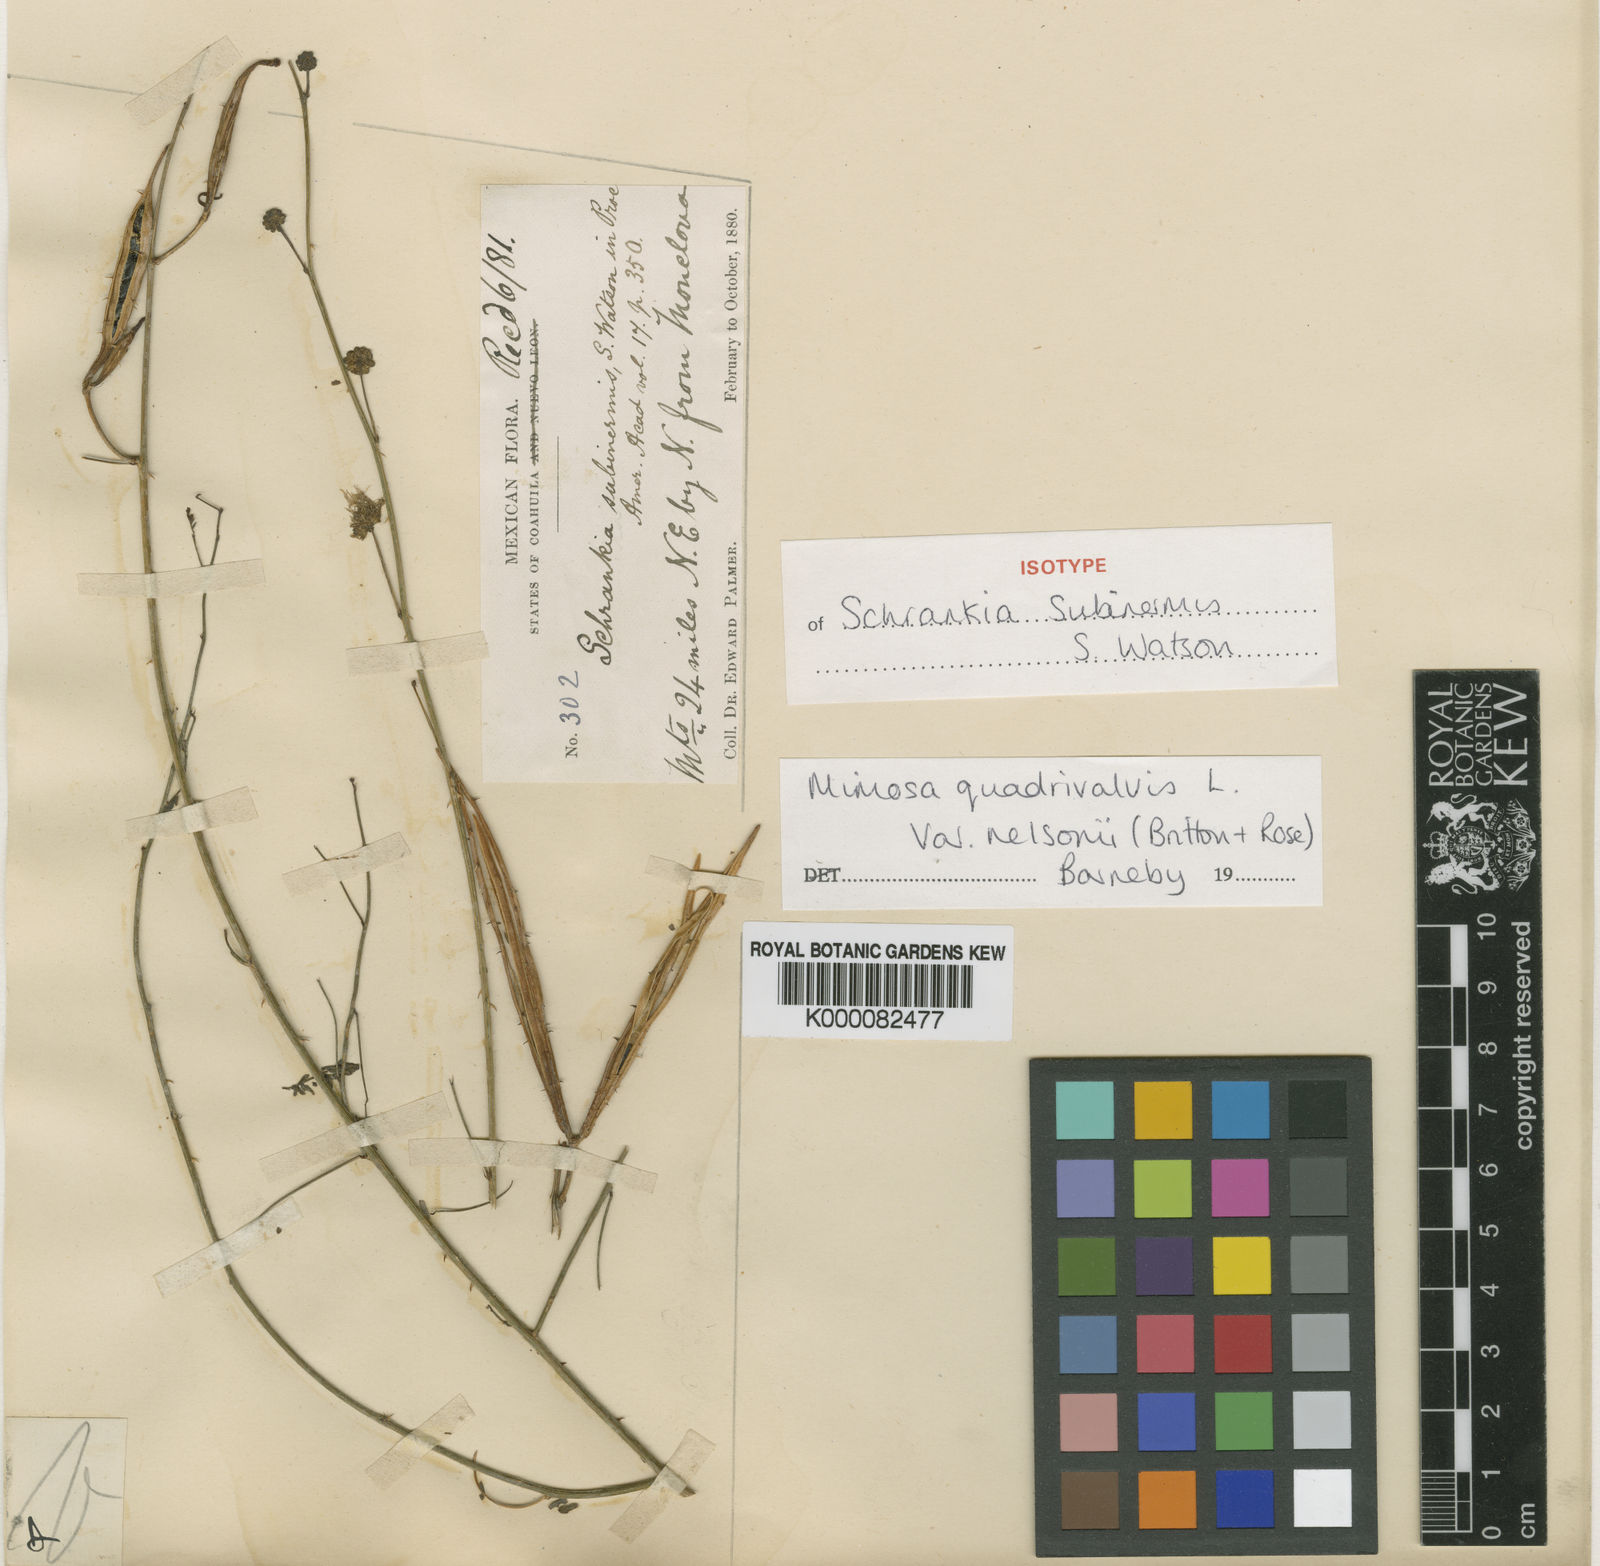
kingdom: Plantae
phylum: Tracheophyta
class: Magnoliopsida
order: Fabales
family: Fabaceae
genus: Mimosa
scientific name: Mimosa monclovensis
